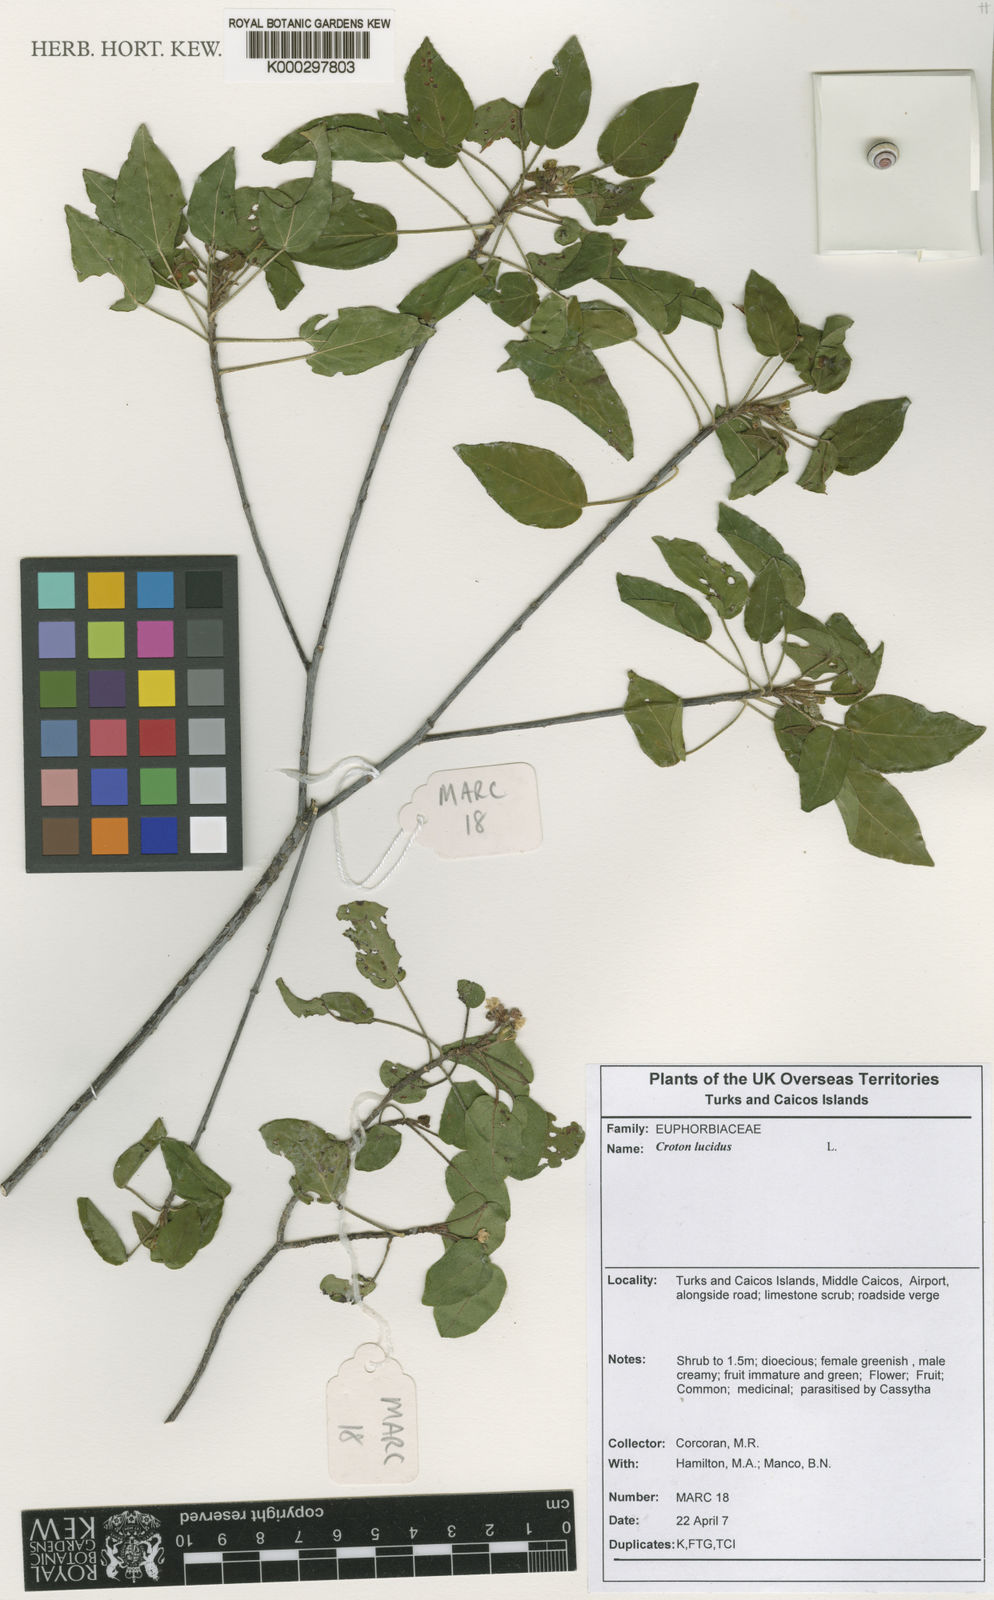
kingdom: Plantae
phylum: Tracheophyta
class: Magnoliopsida
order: Malpighiales
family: Euphorbiaceae
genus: Croton
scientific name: Croton lucidus
